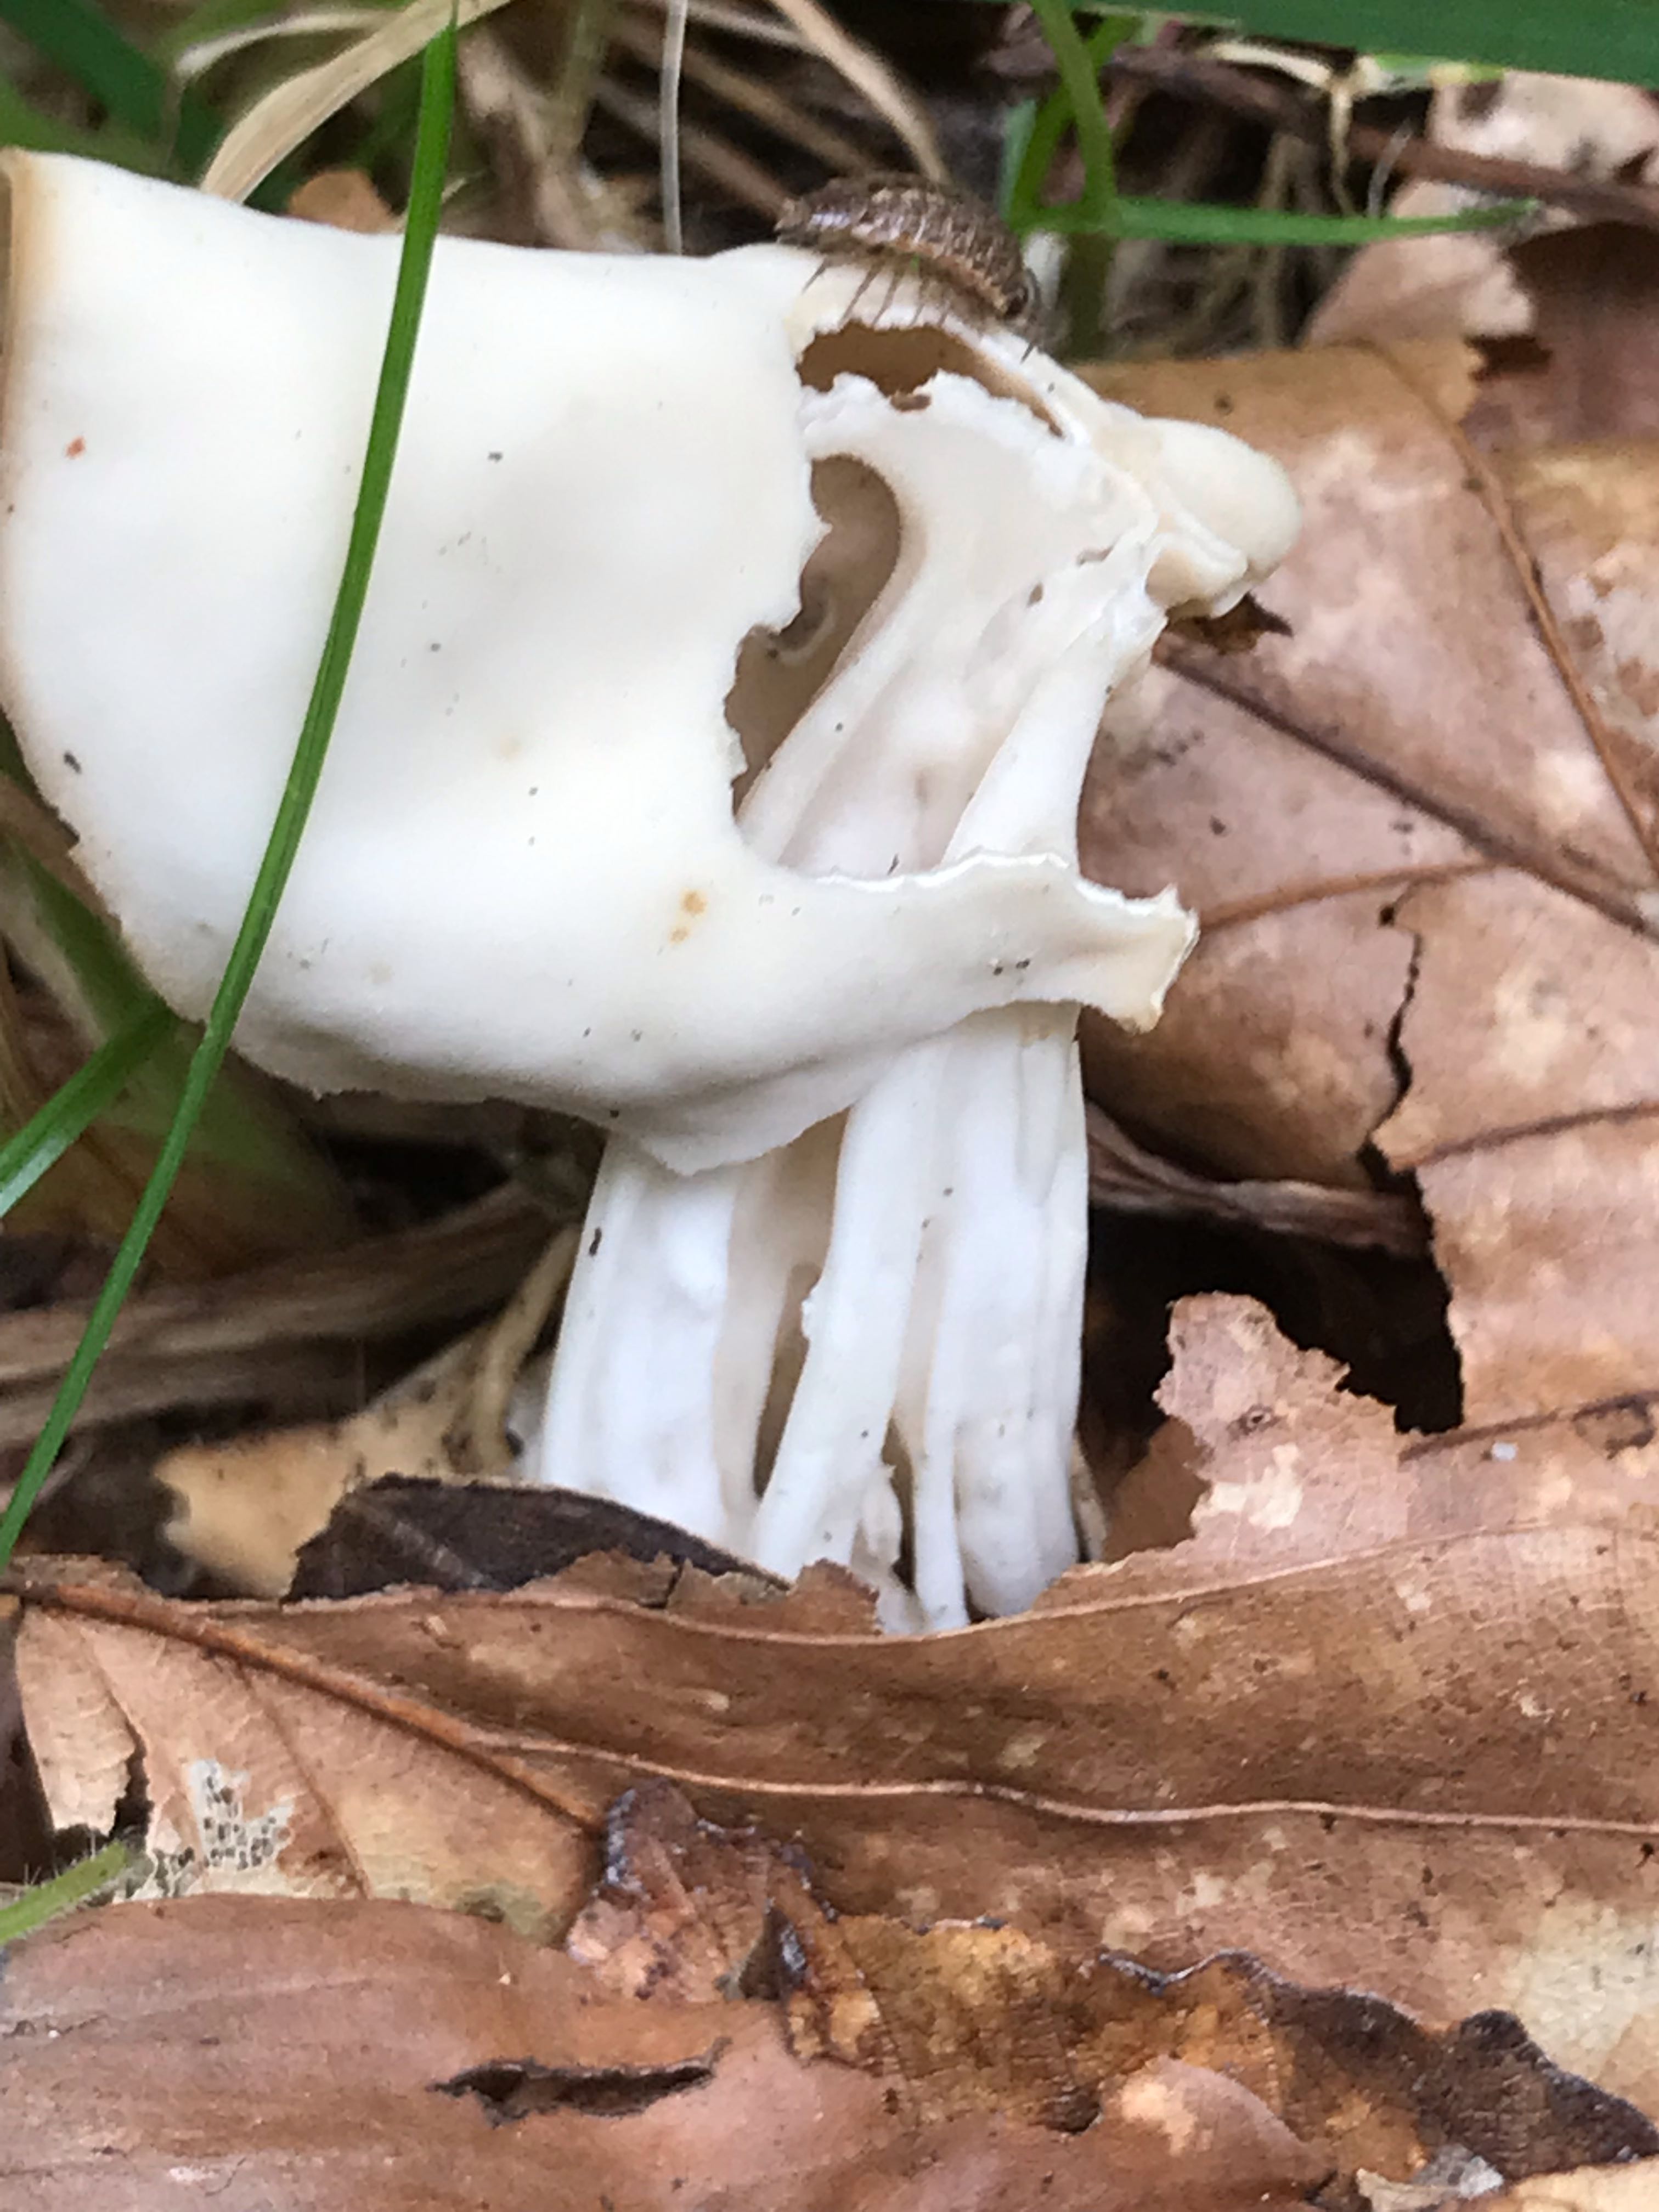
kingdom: Fungi
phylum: Ascomycota
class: Pezizomycetes
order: Pezizales
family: Helvellaceae
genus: Helvella
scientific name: Helvella crispa
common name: kruset foldhat
